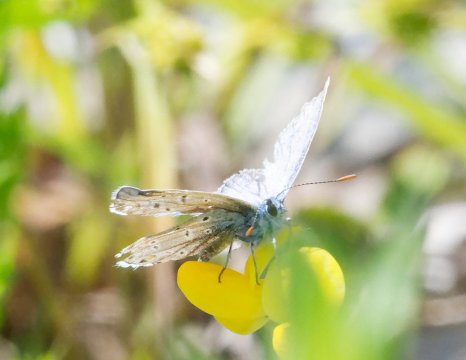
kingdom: Animalia
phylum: Arthropoda
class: Insecta
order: Lepidoptera
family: Lycaenidae
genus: Polyommatus
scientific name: Polyommatus icarus
